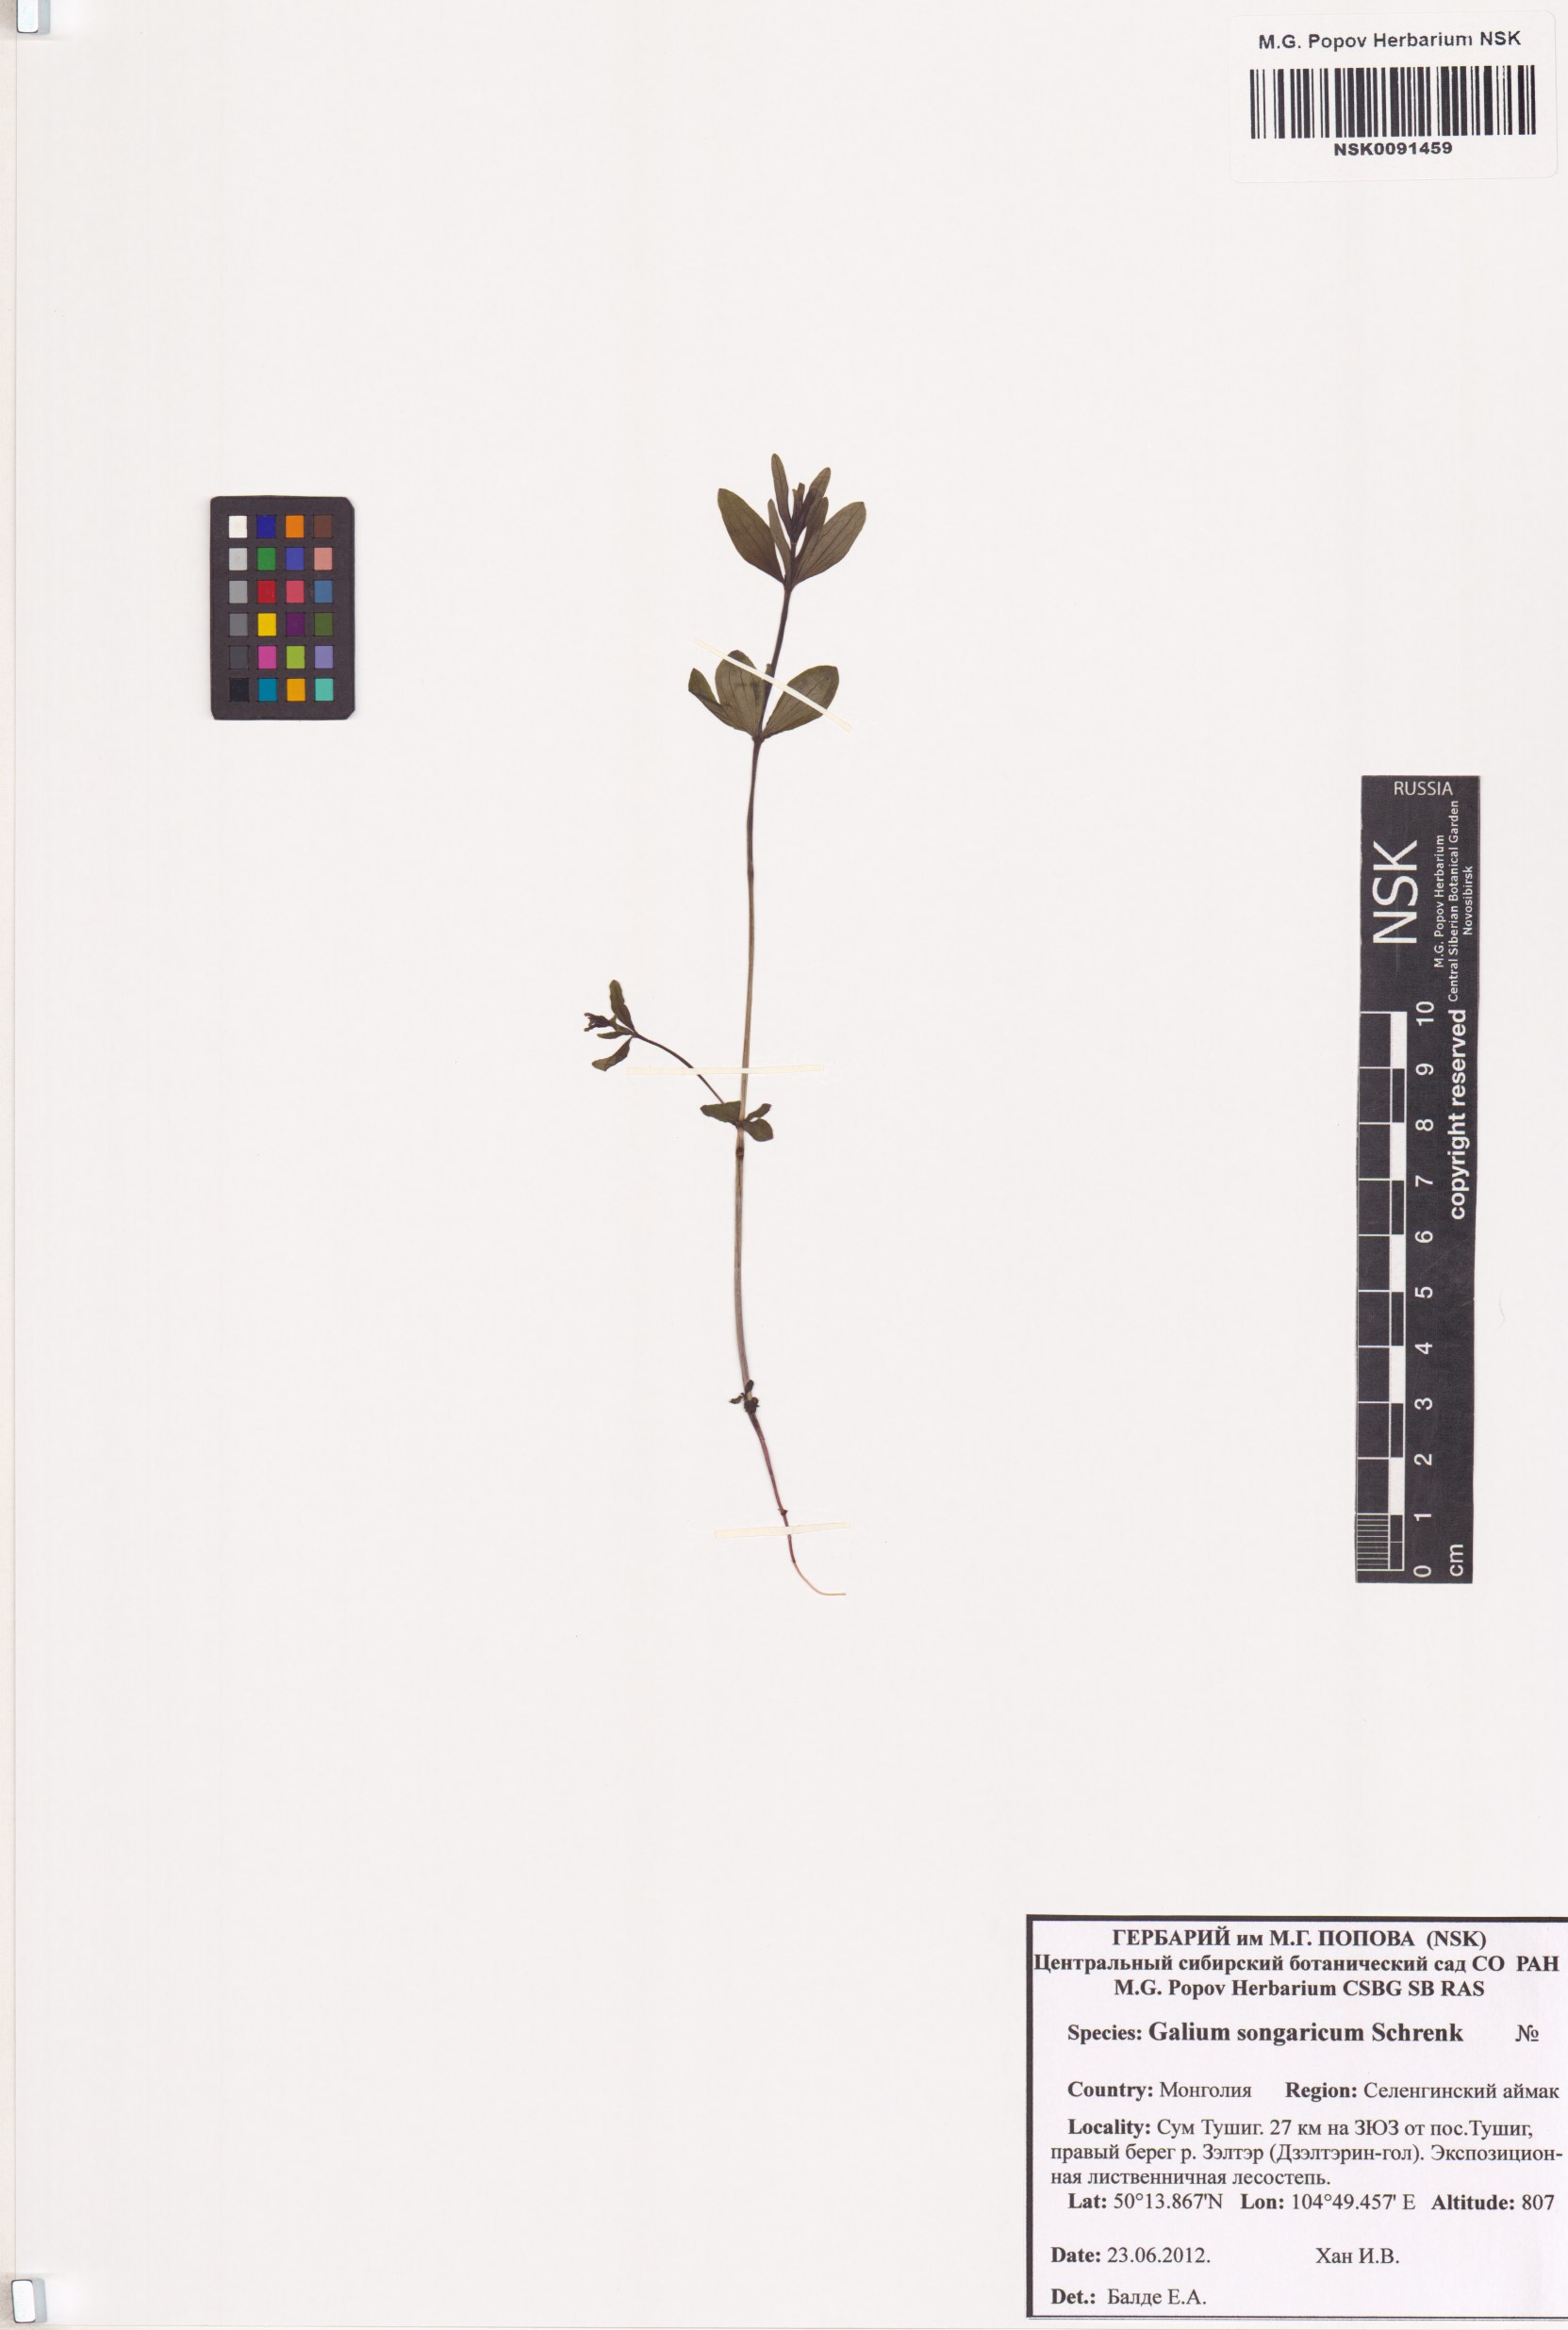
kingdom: Plantae
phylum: Tracheophyta
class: Magnoliopsida
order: Gentianales
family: Rubiaceae
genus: Galium
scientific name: Galium songaricum
